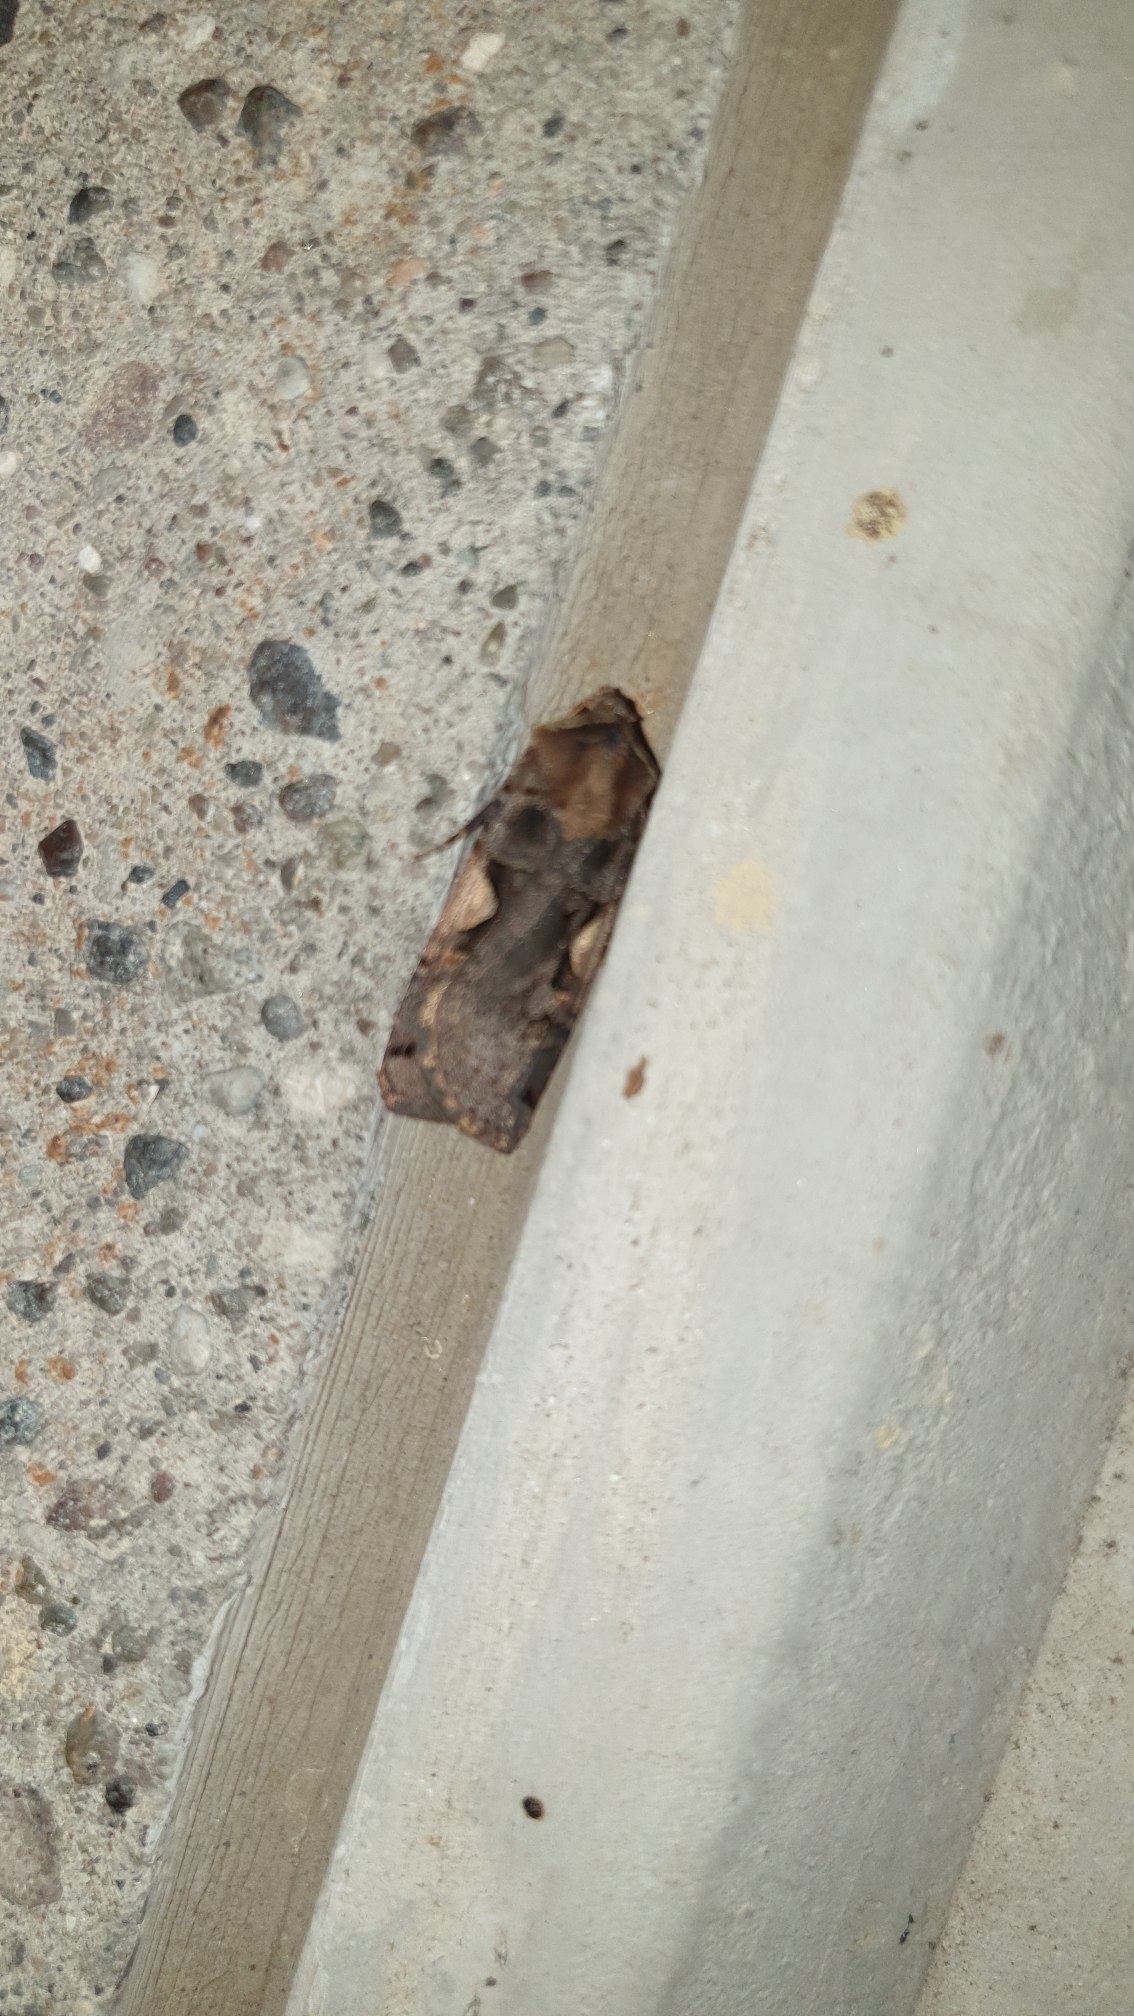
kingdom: Animalia
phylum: Arthropoda
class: Insecta
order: Lepidoptera
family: Noctuidae
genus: Xestia
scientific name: Xestia c-nigrum
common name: Det sorte c
